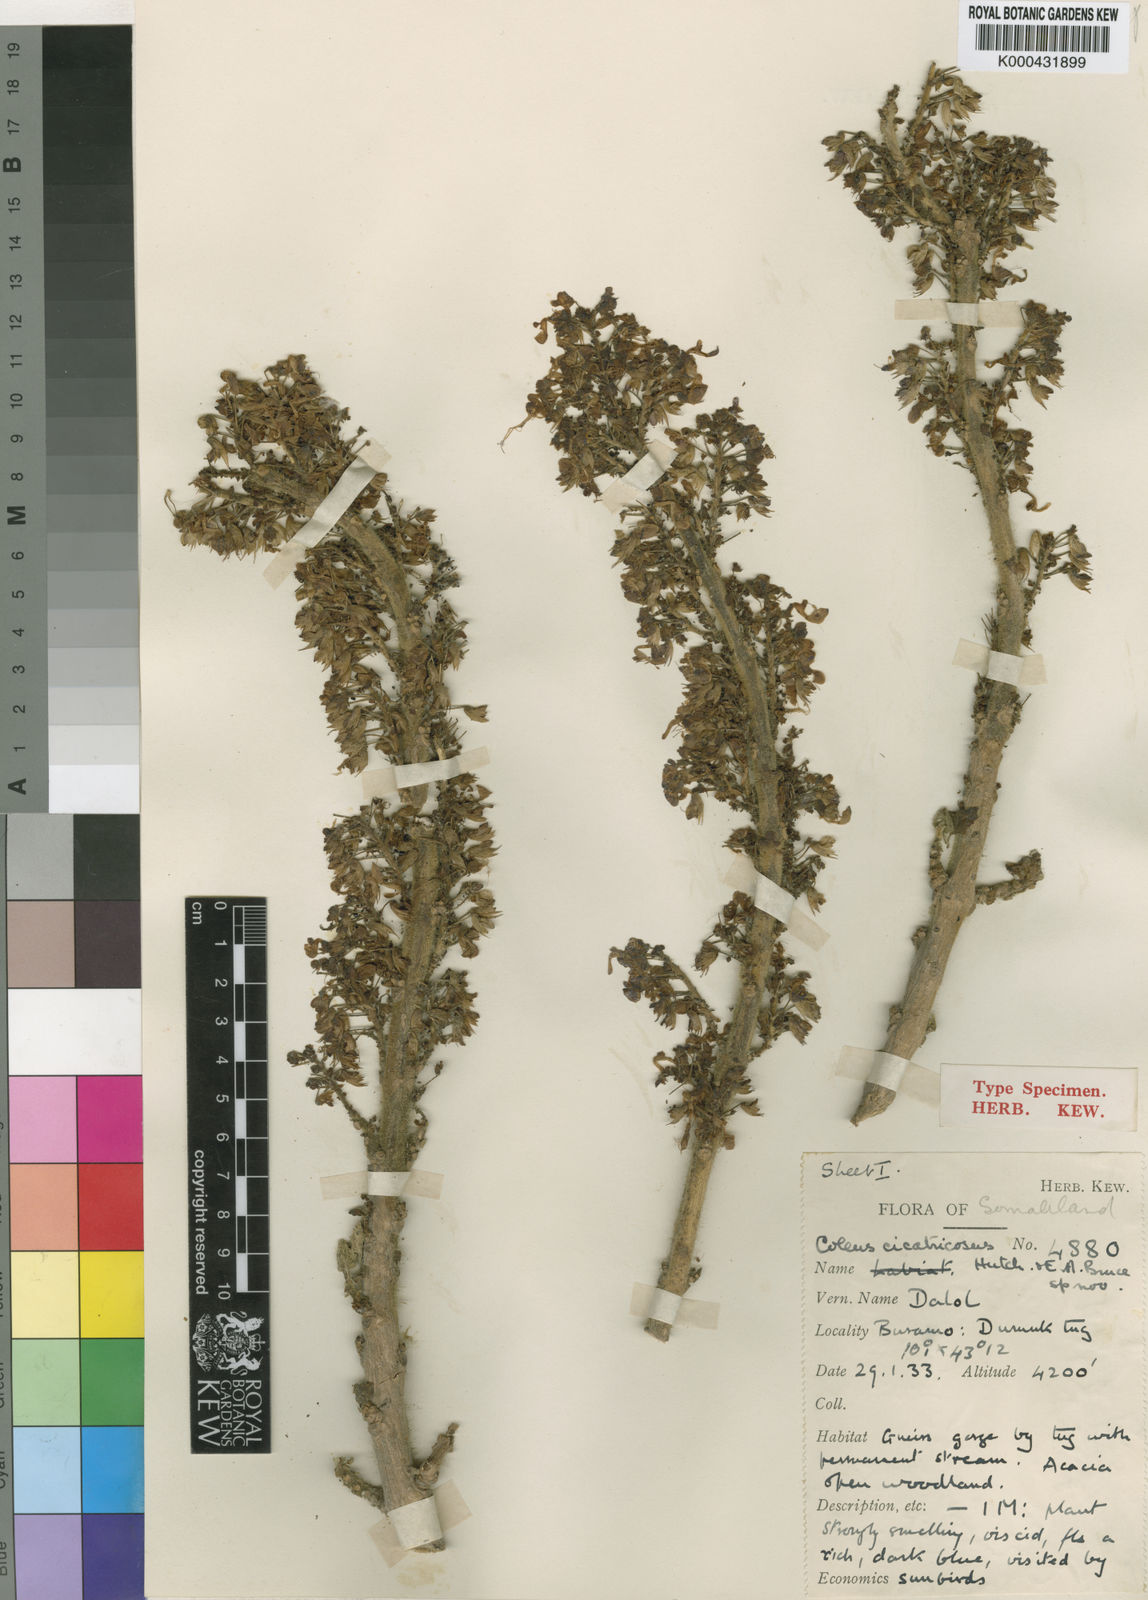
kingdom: Plantae
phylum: Tracheophyta
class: Magnoliopsida
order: Lamiales
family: Lamiaceae
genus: Coleus
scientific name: Coleus burorum
